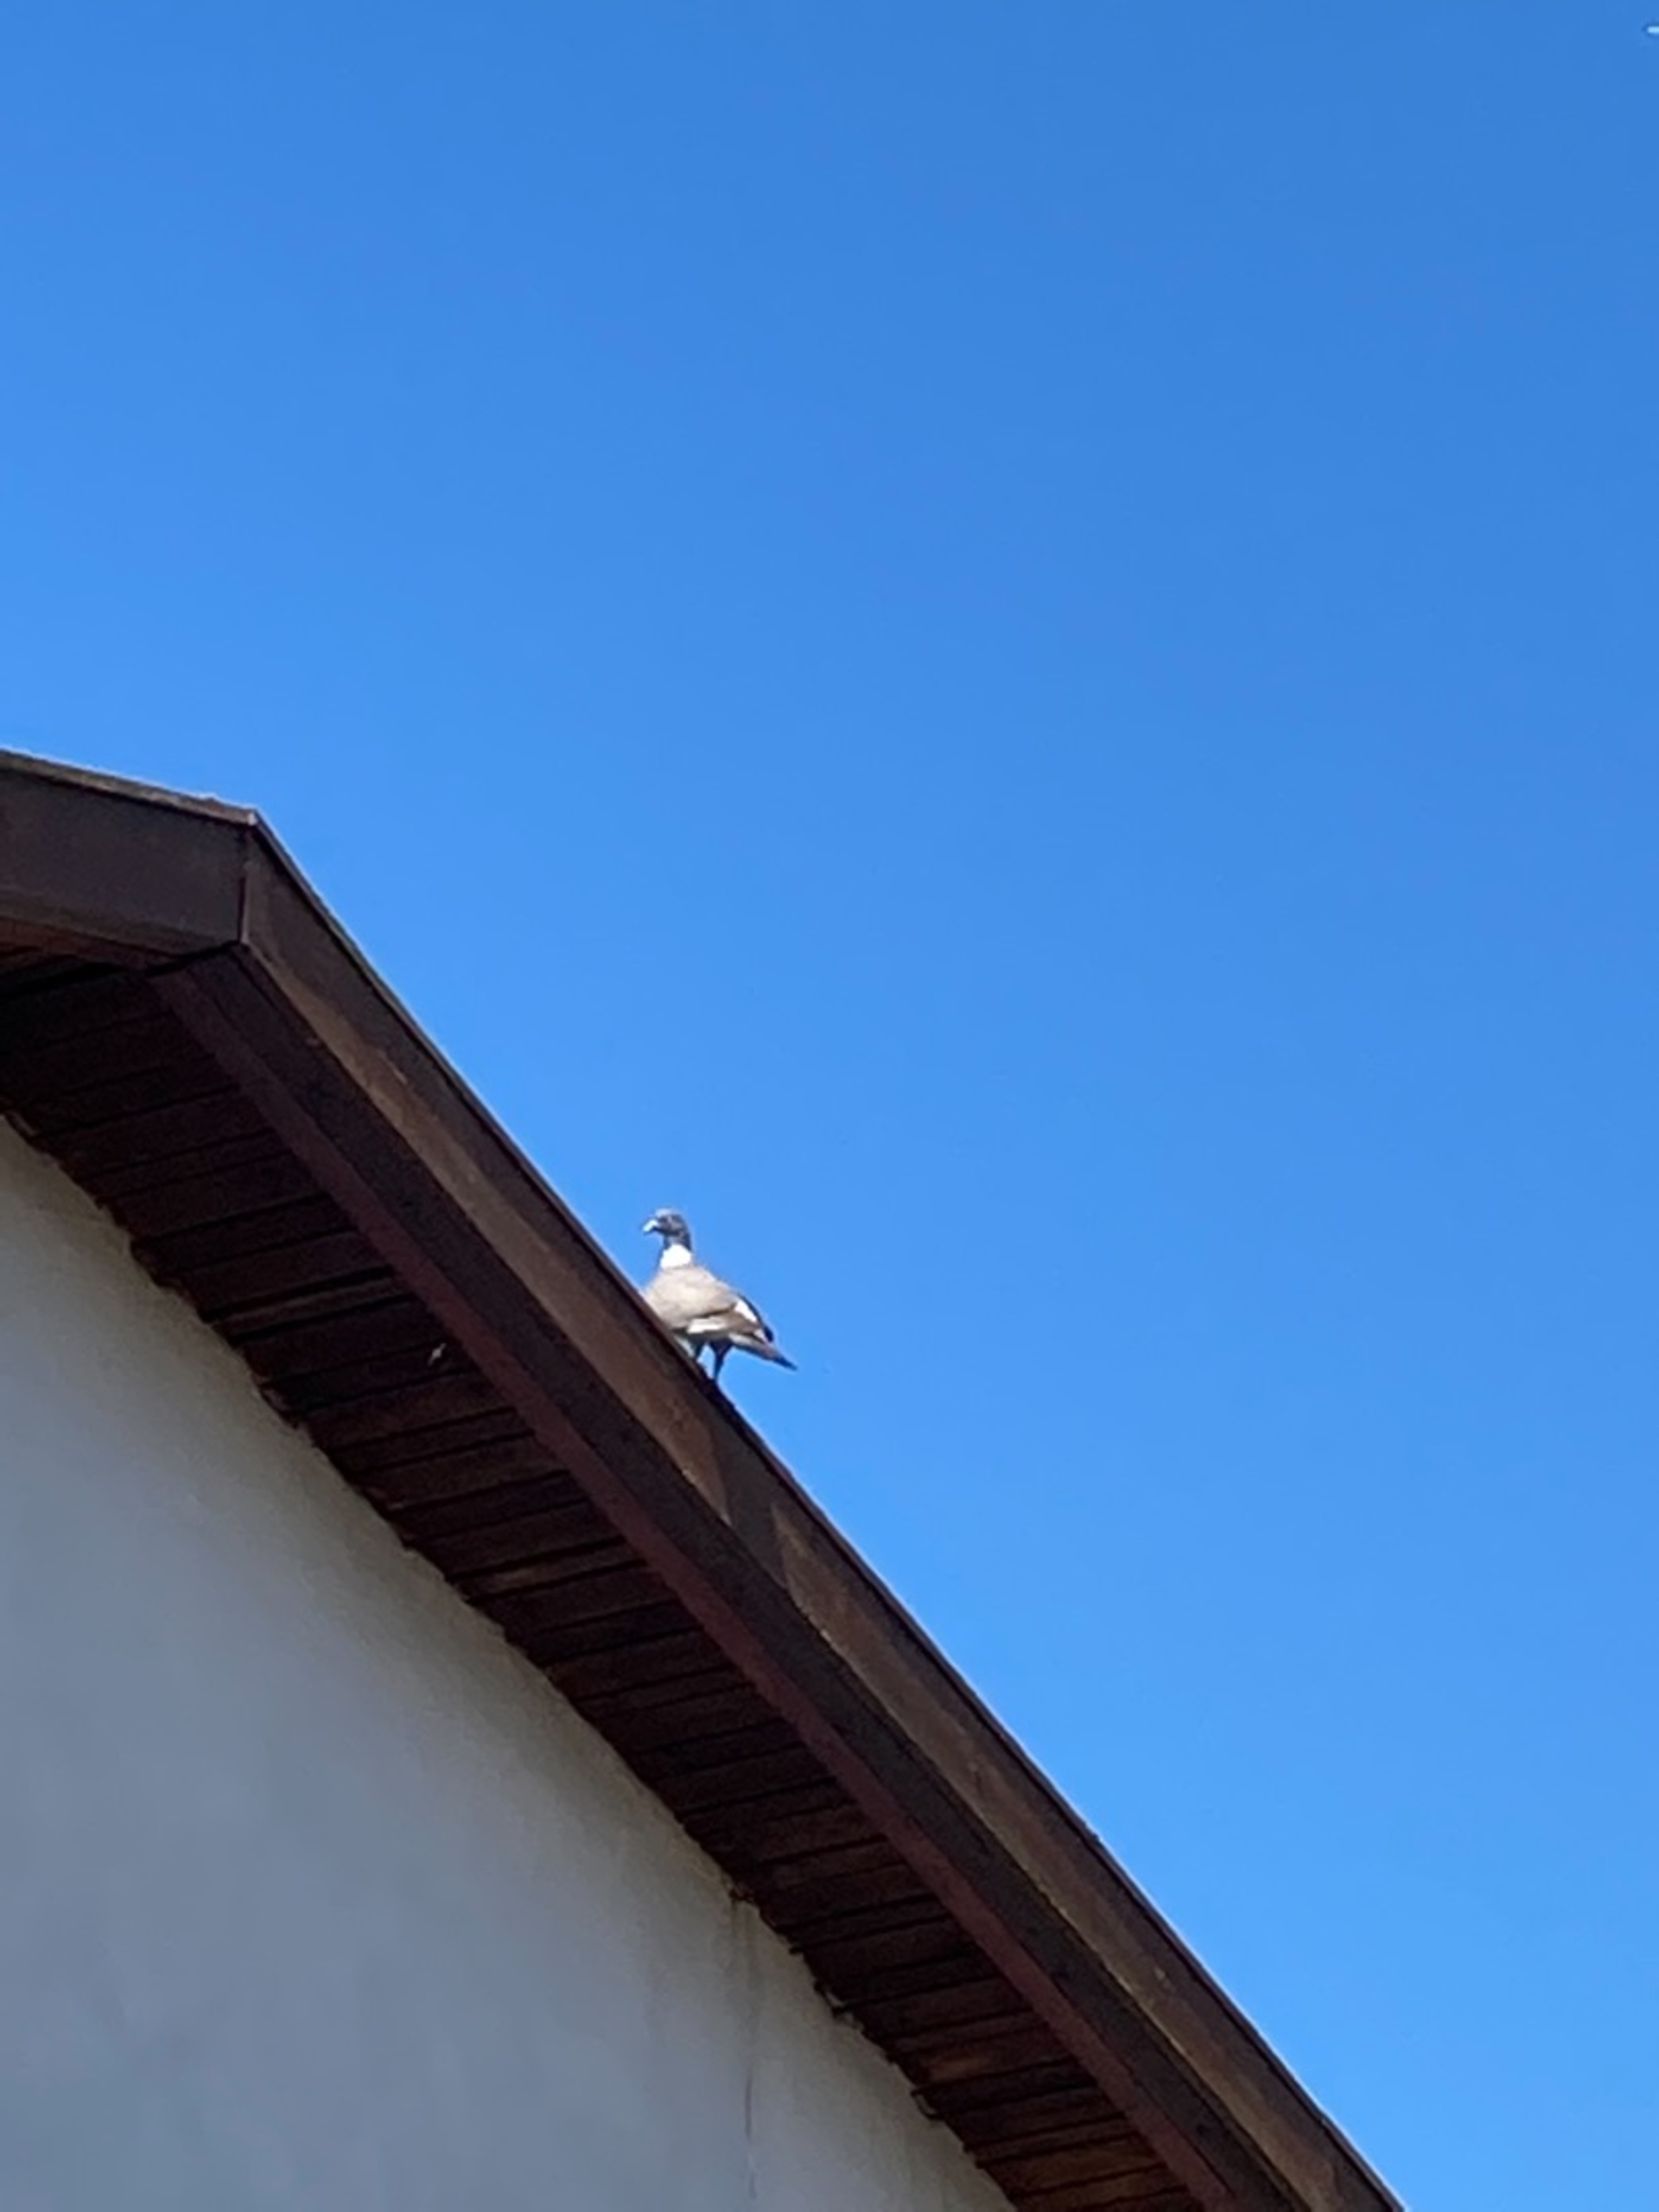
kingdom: Animalia
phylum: Chordata
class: Aves
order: Columbiformes
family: Columbidae
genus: Columba
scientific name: Columba palumbus
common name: Ringdue
